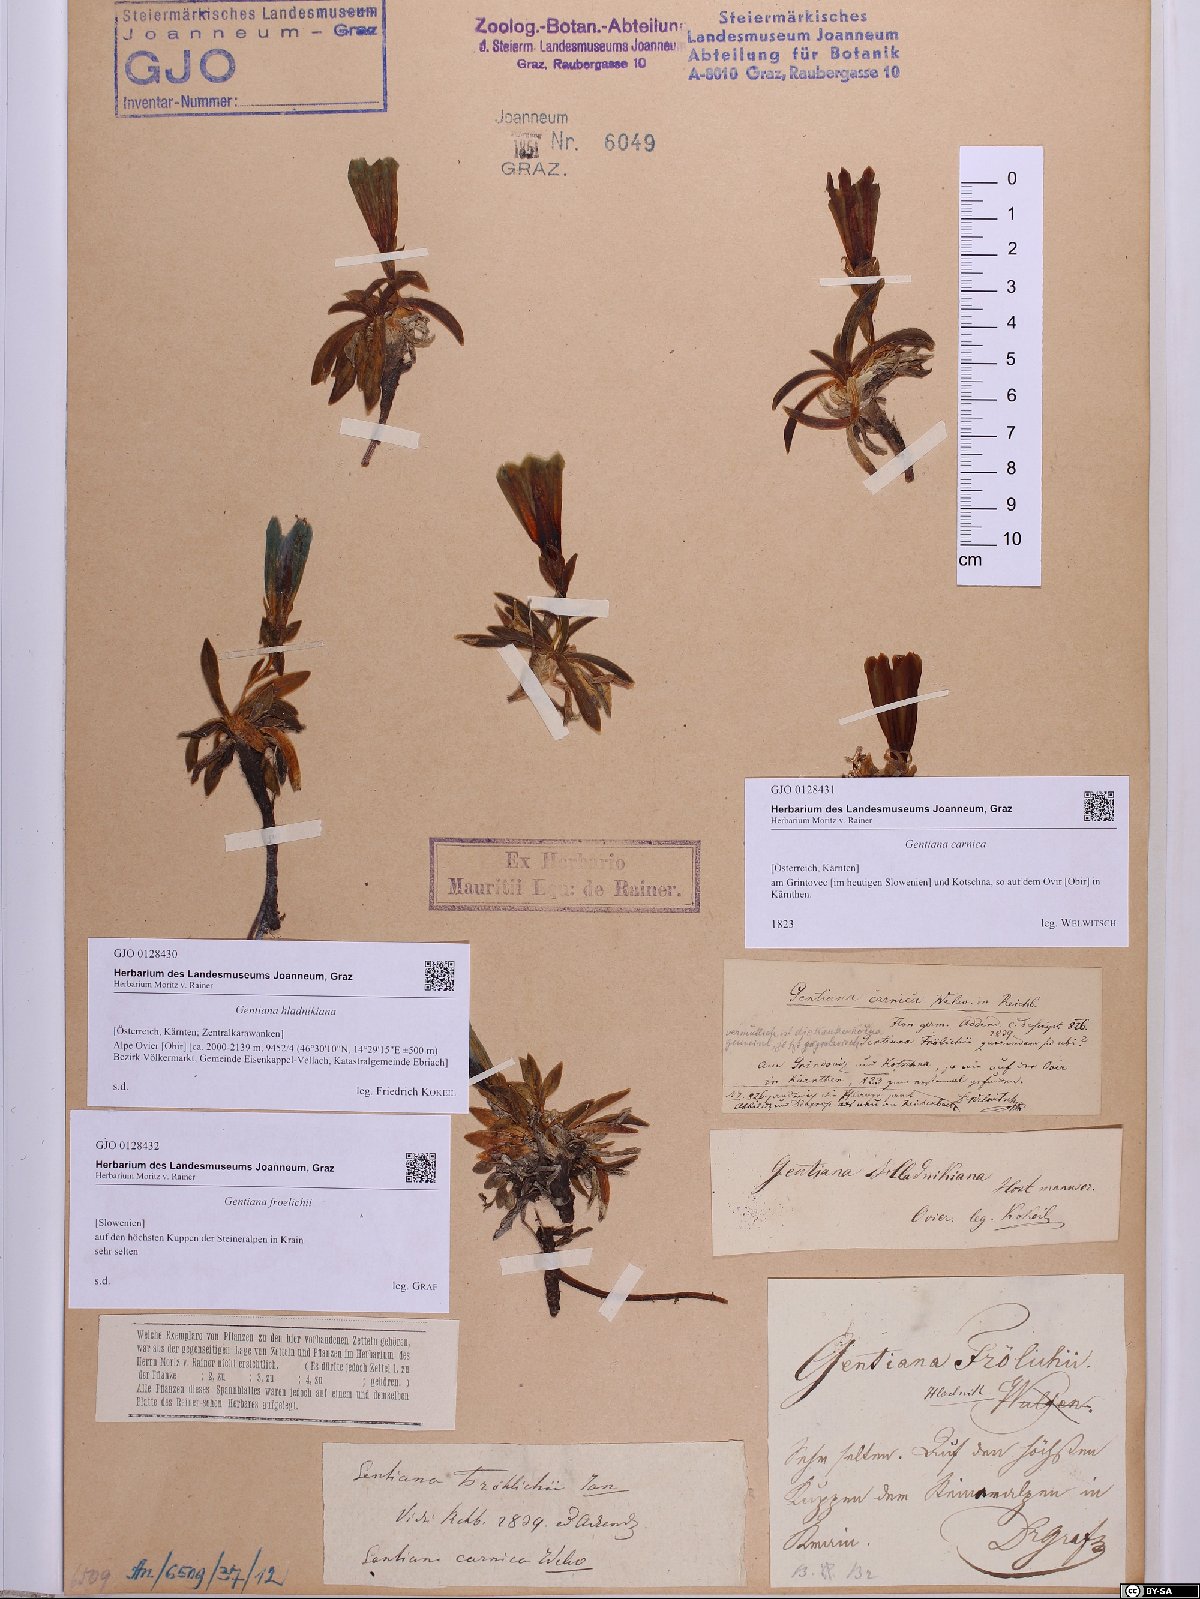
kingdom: Plantae
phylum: Tracheophyta
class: Magnoliopsida
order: Gentianales
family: Gentianaceae
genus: Gentiana
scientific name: Gentiana froelichii
